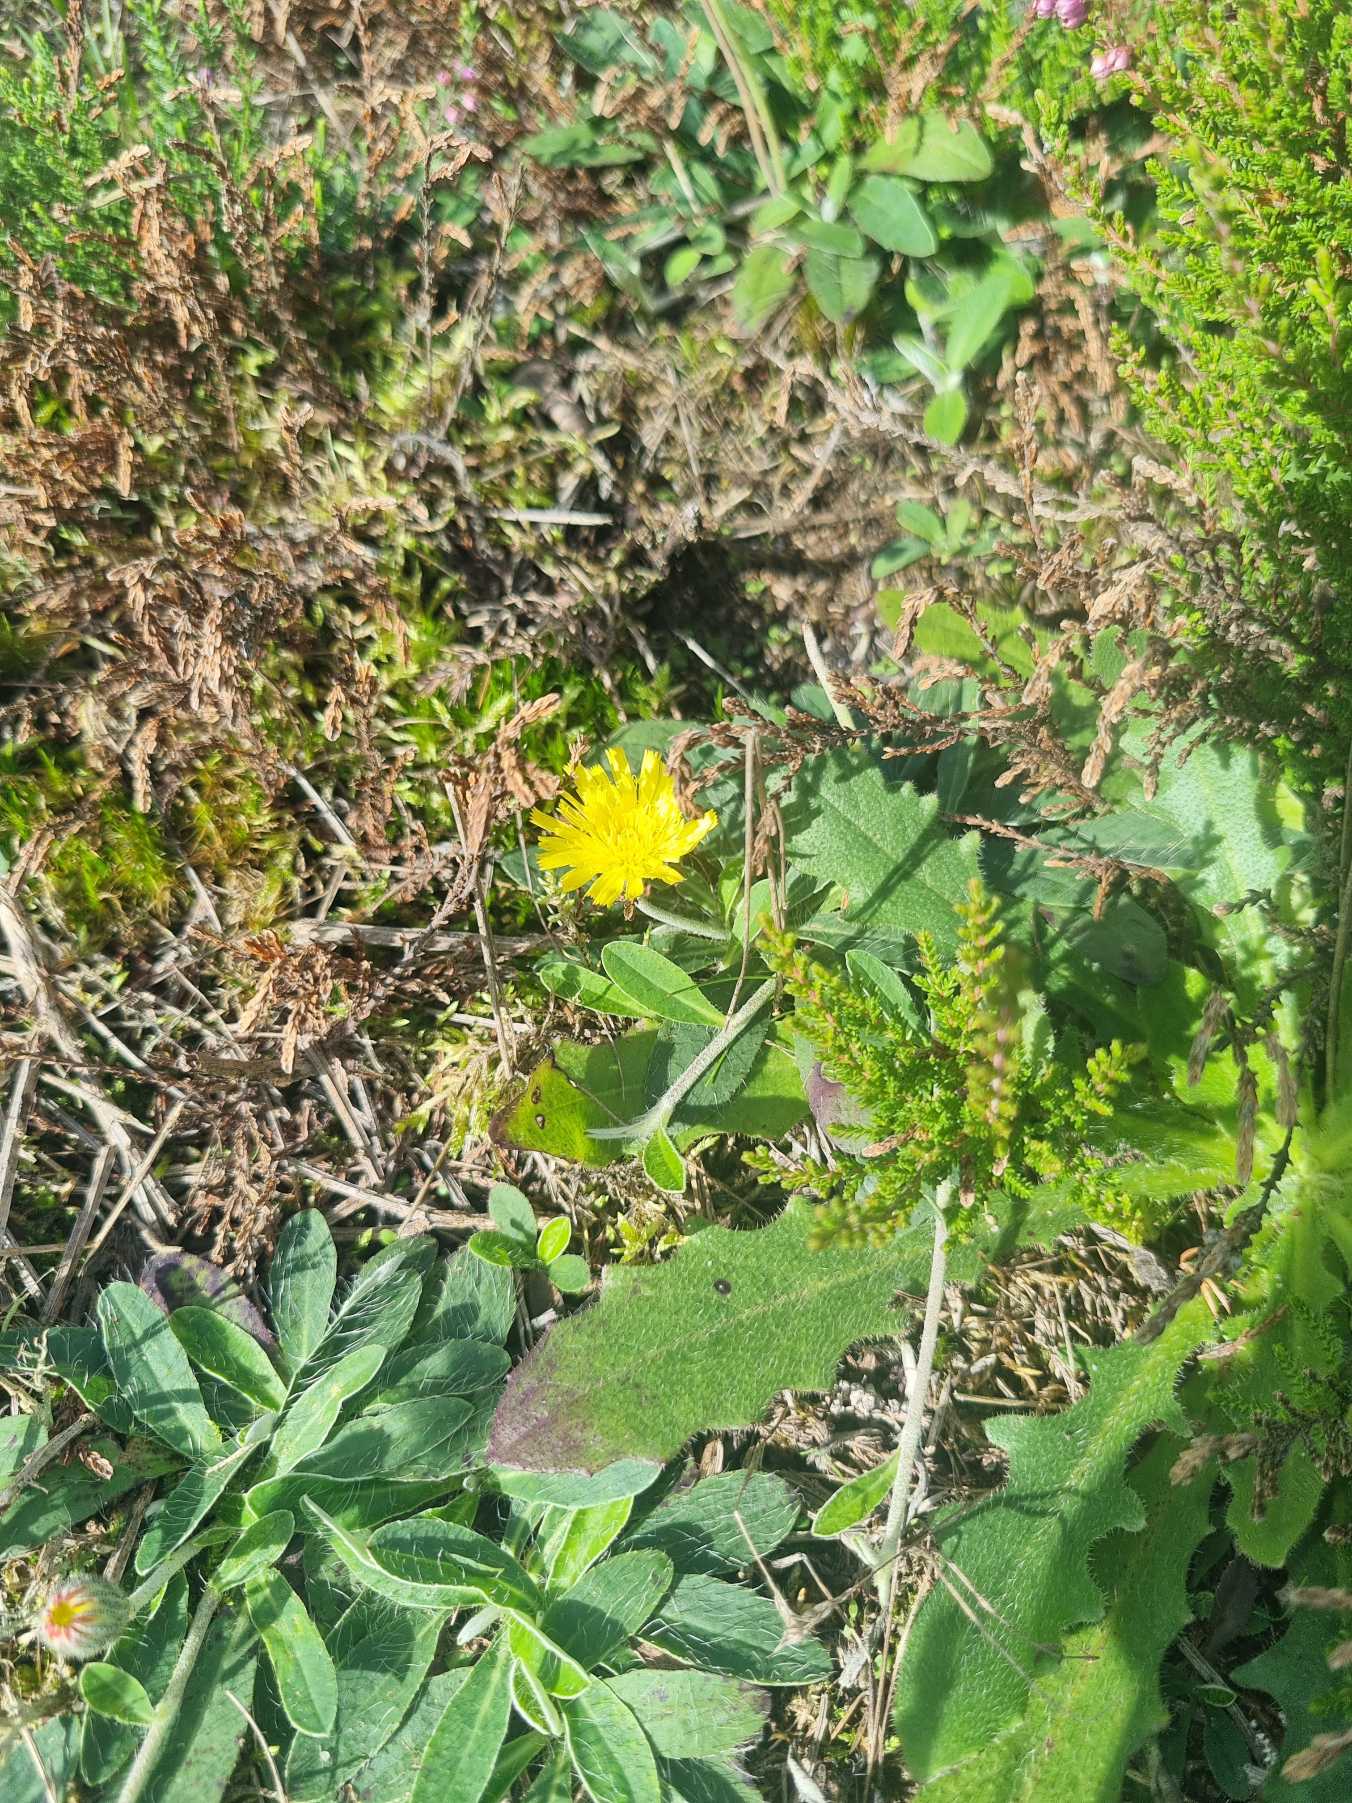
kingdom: Plantae
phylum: Tracheophyta
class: Magnoliopsida
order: Asterales
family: Asteraceae
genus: Pilosella
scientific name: Pilosella officinarum
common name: Håret høgeurt
